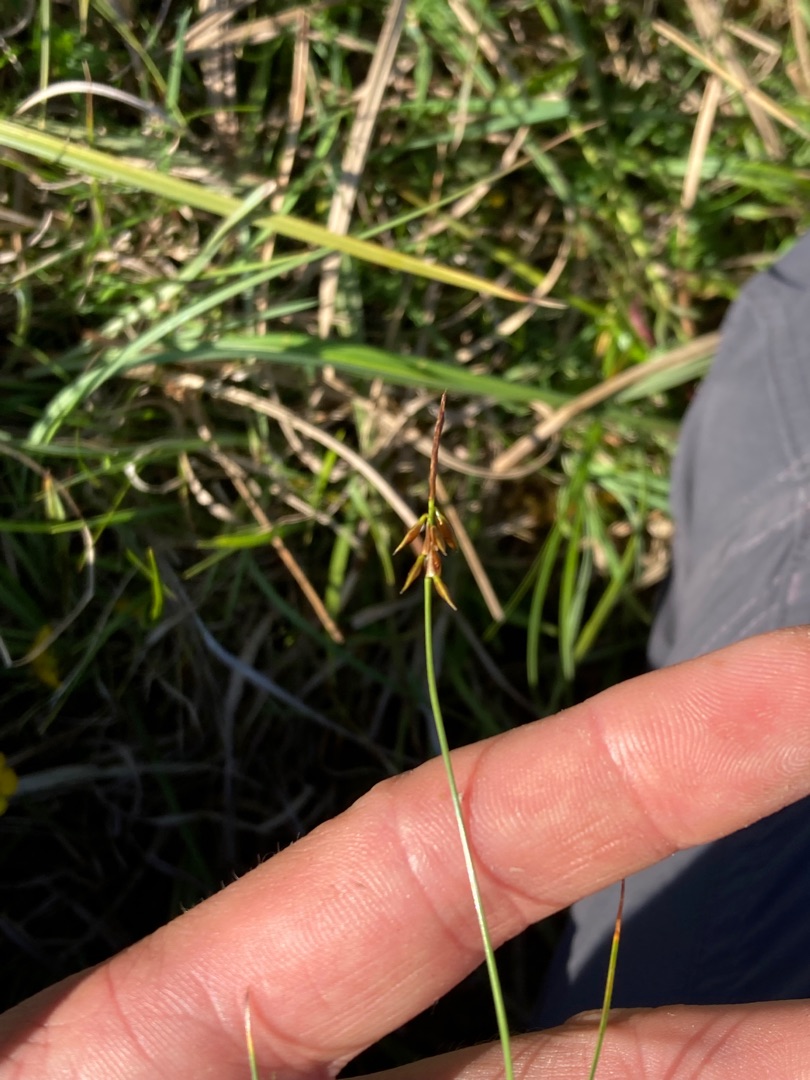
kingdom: Plantae
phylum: Tracheophyta
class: Liliopsida
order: Poales
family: Cyperaceae
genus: Carex
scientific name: Carex pulicaris
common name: Loppe-star
